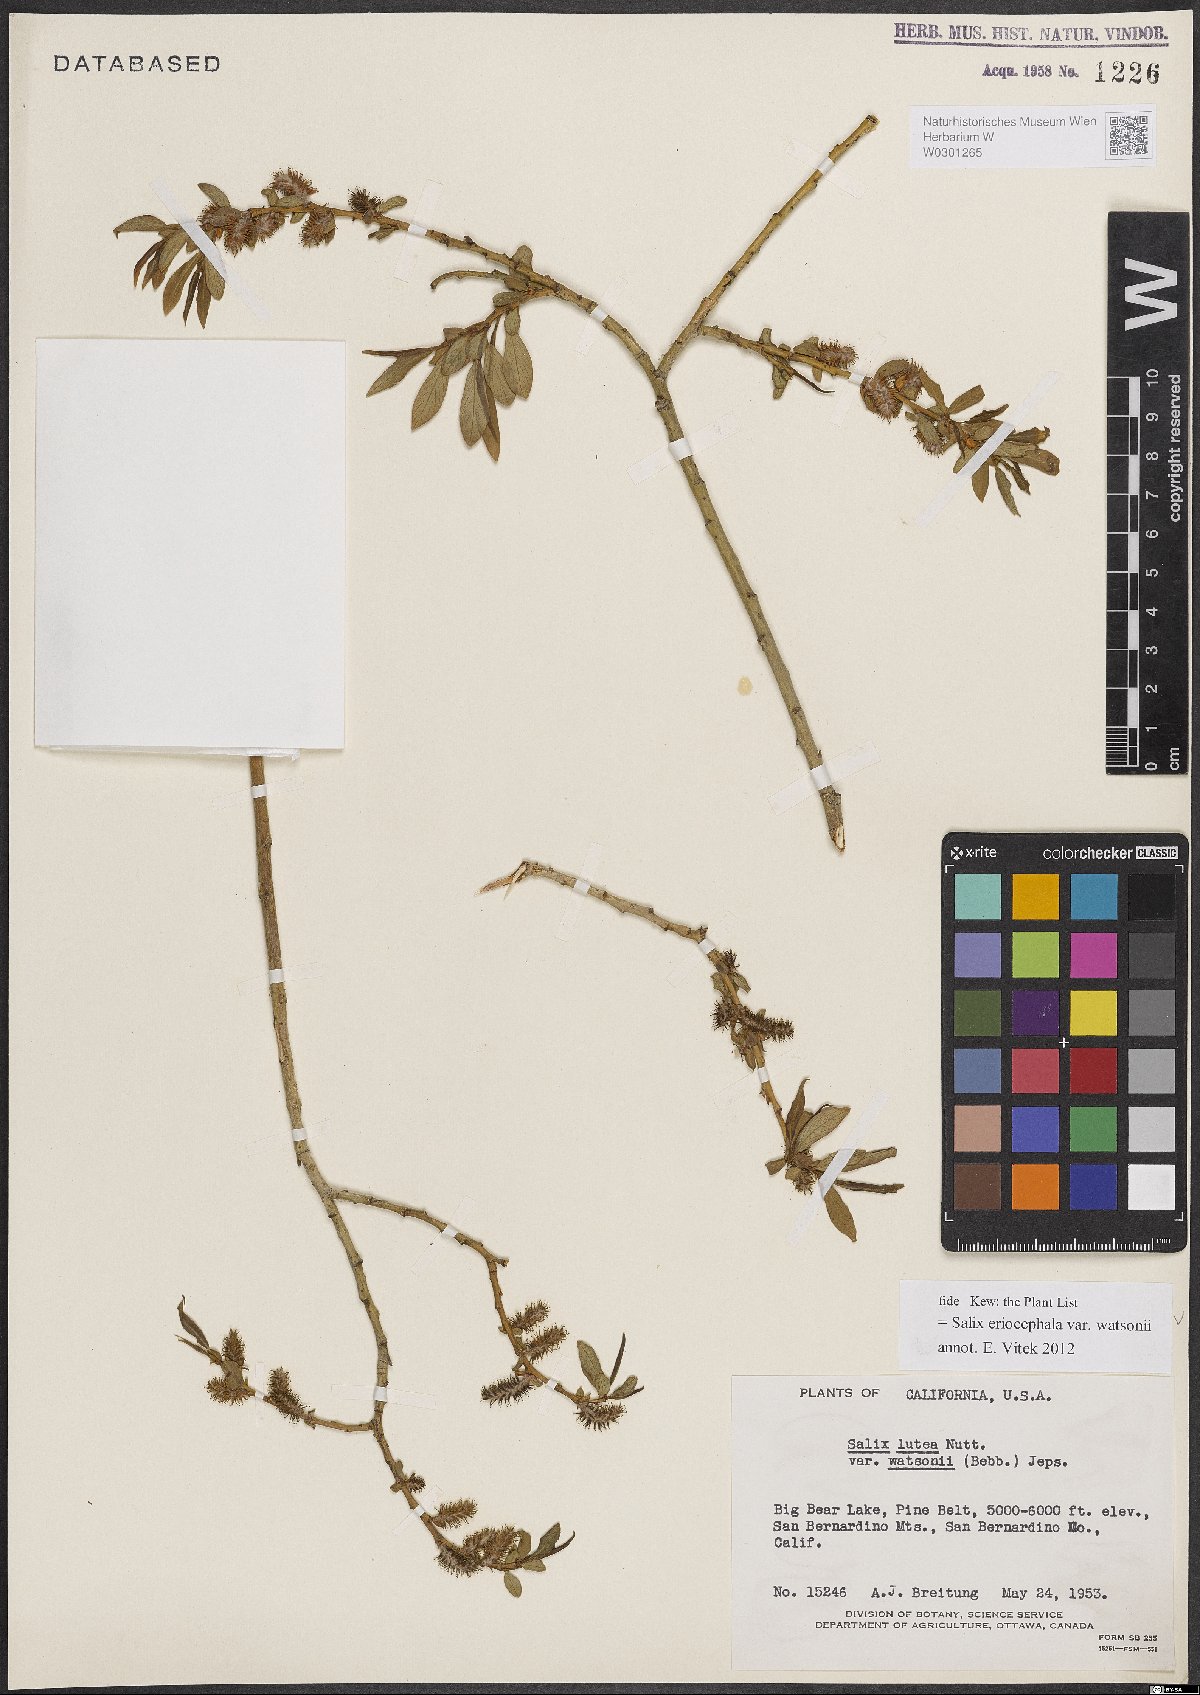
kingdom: Plantae
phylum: Tracheophyta
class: Magnoliopsida
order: Malpighiales
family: Salicaceae
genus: Salix
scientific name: Salix lutea
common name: Yellow willow
